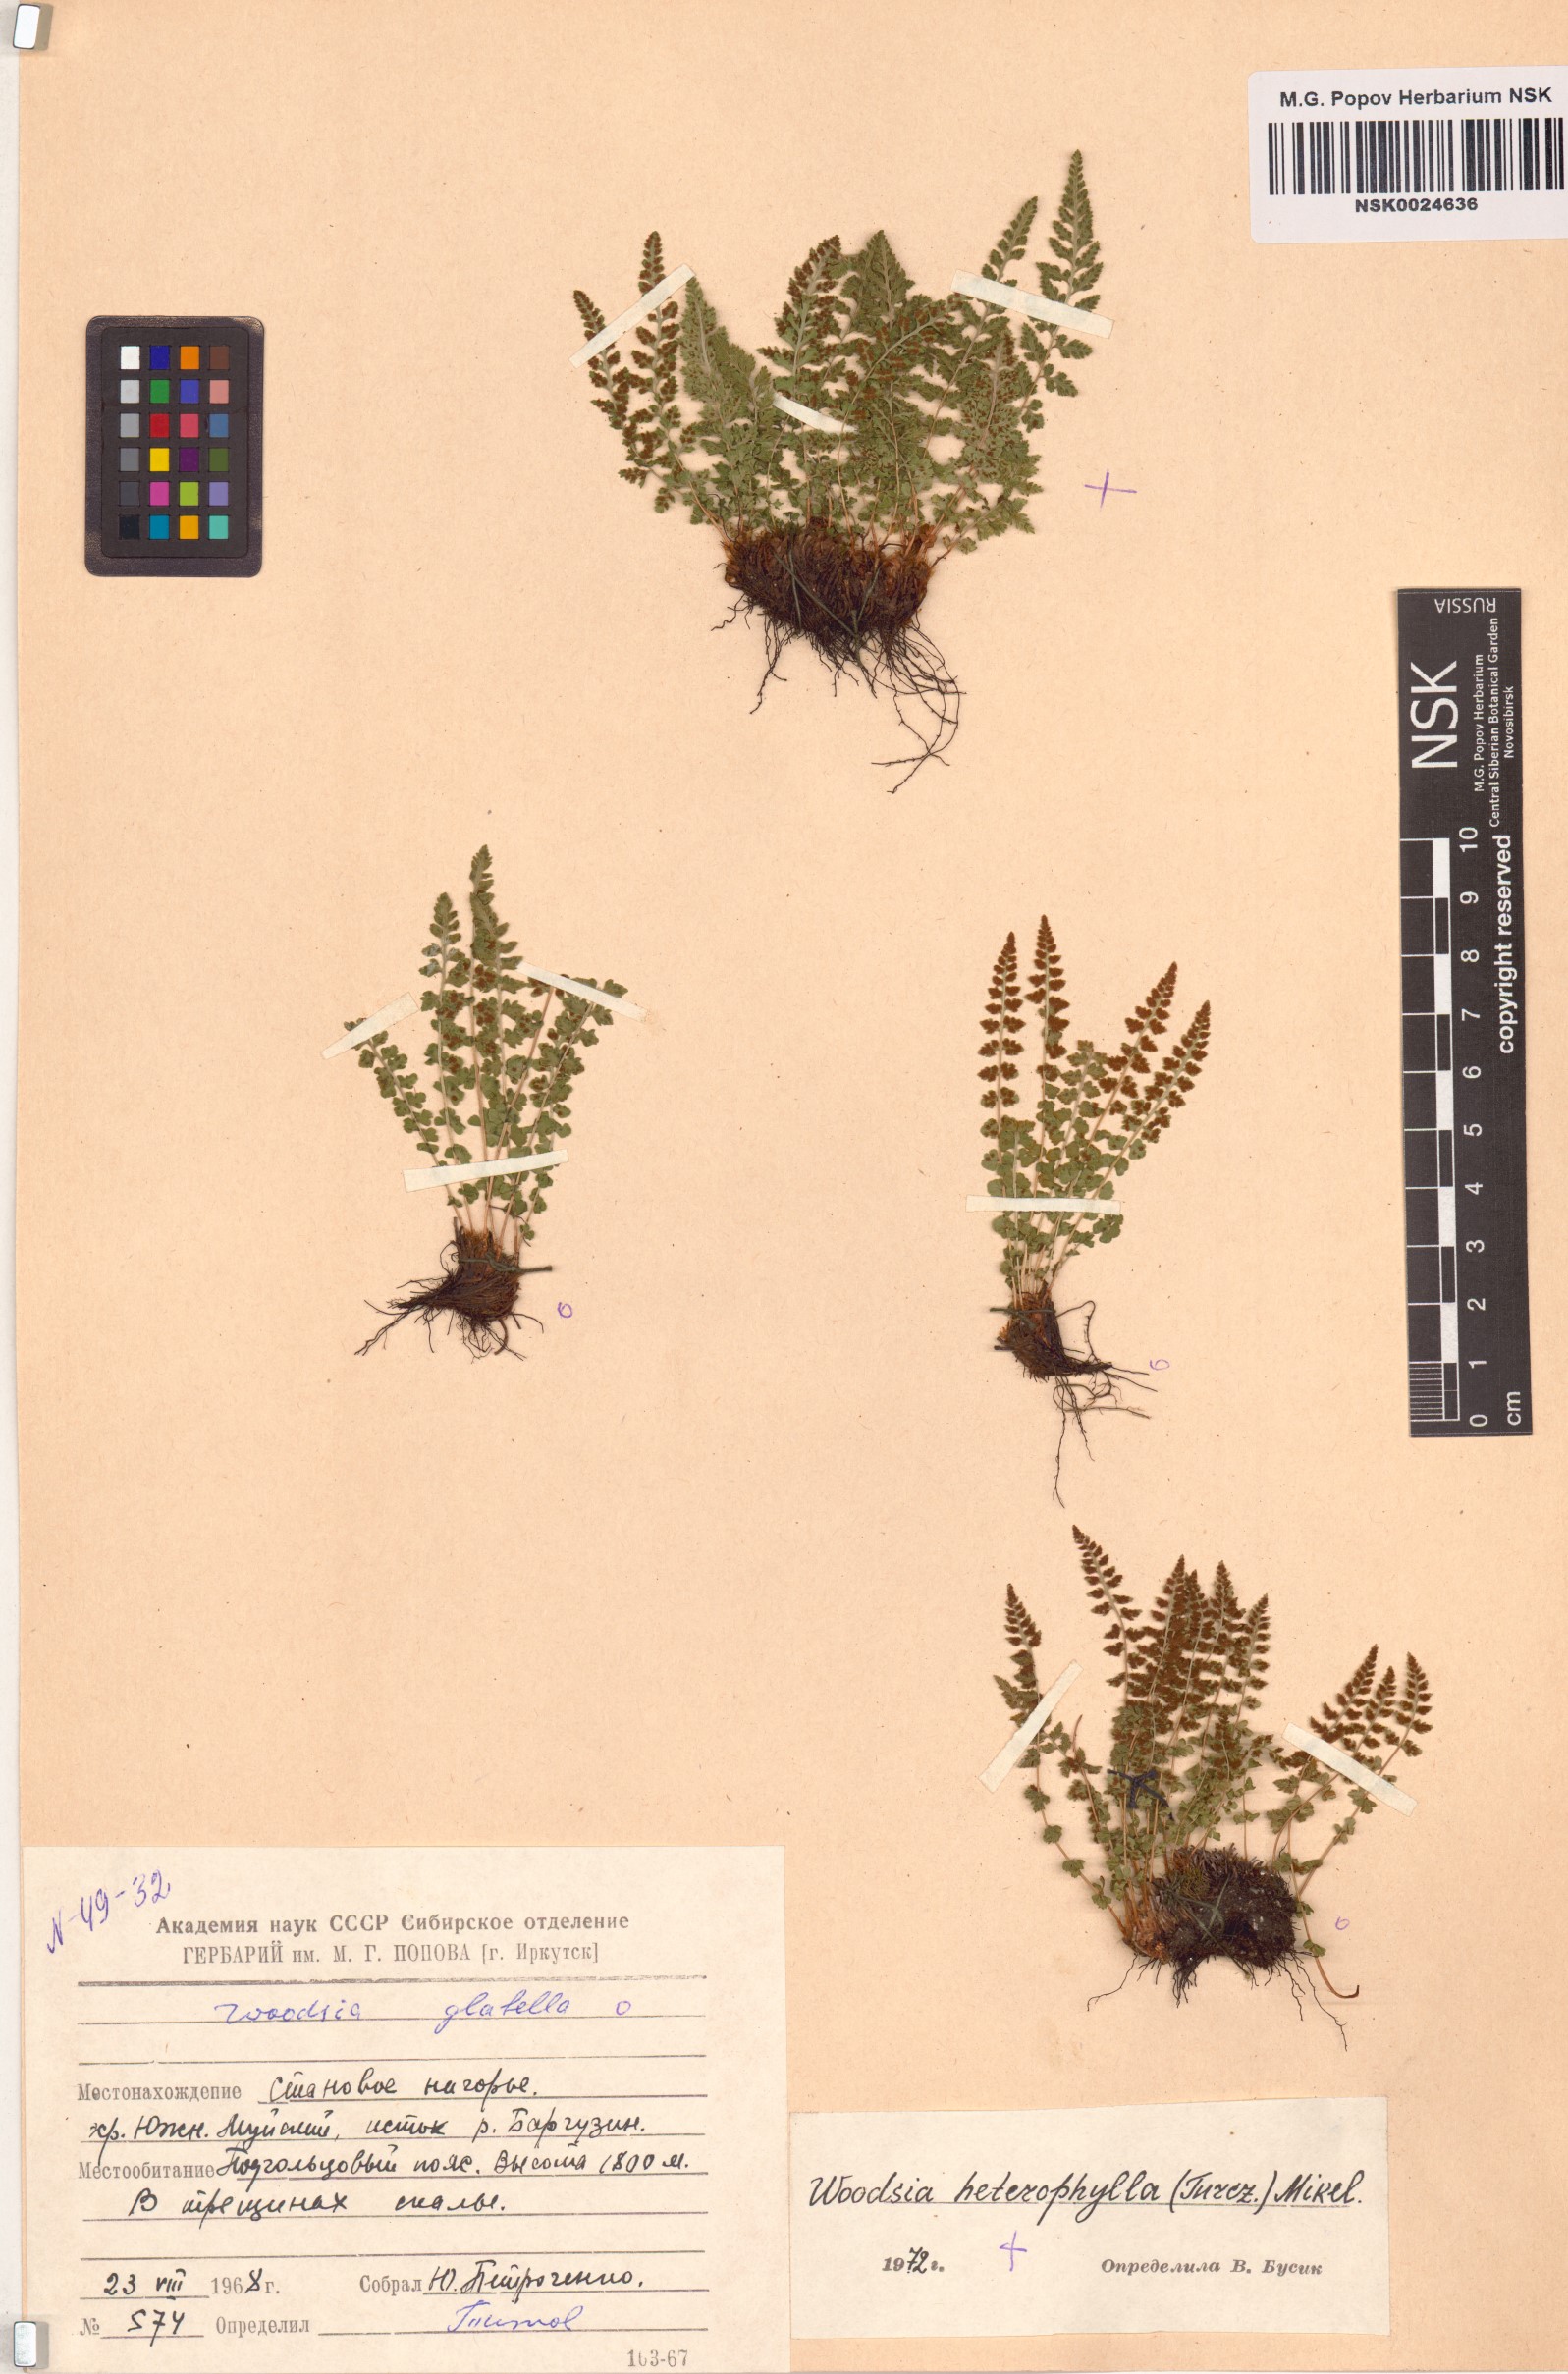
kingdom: Plantae
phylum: Tracheophyta
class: Polypodiopsida
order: Polypodiales
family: Woodsiaceae
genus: Woodsia
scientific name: Woodsia pulchella
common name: Graceful woodsia
